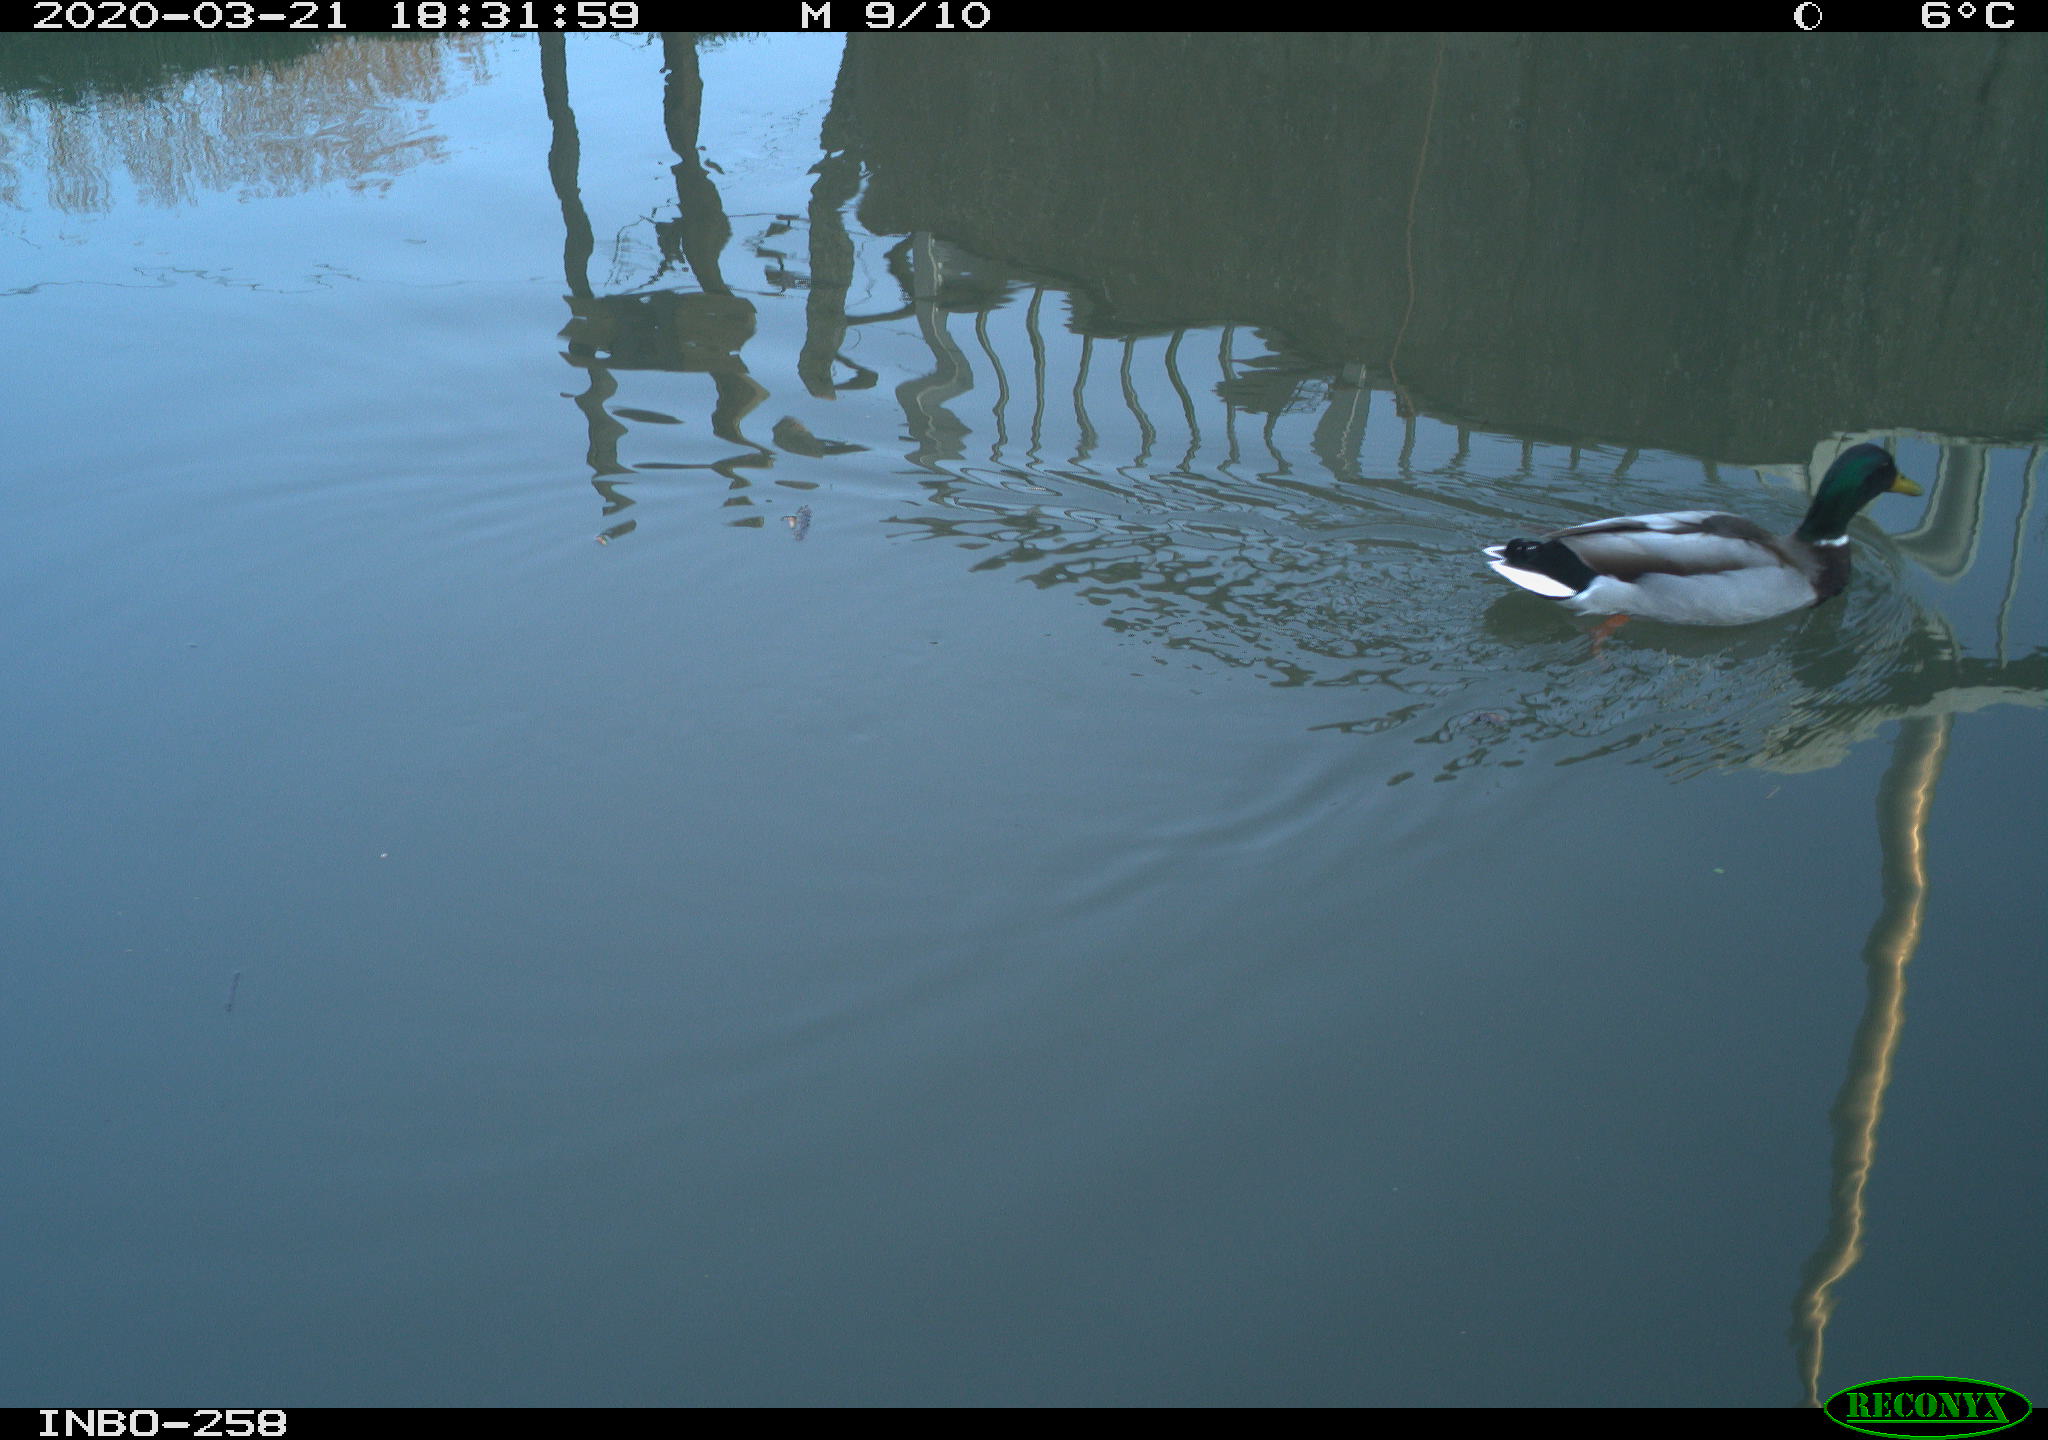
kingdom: Animalia
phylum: Chordata
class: Aves
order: Anseriformes
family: Anatidae
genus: Anas
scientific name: Anas platyrhynchos
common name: Mallard
